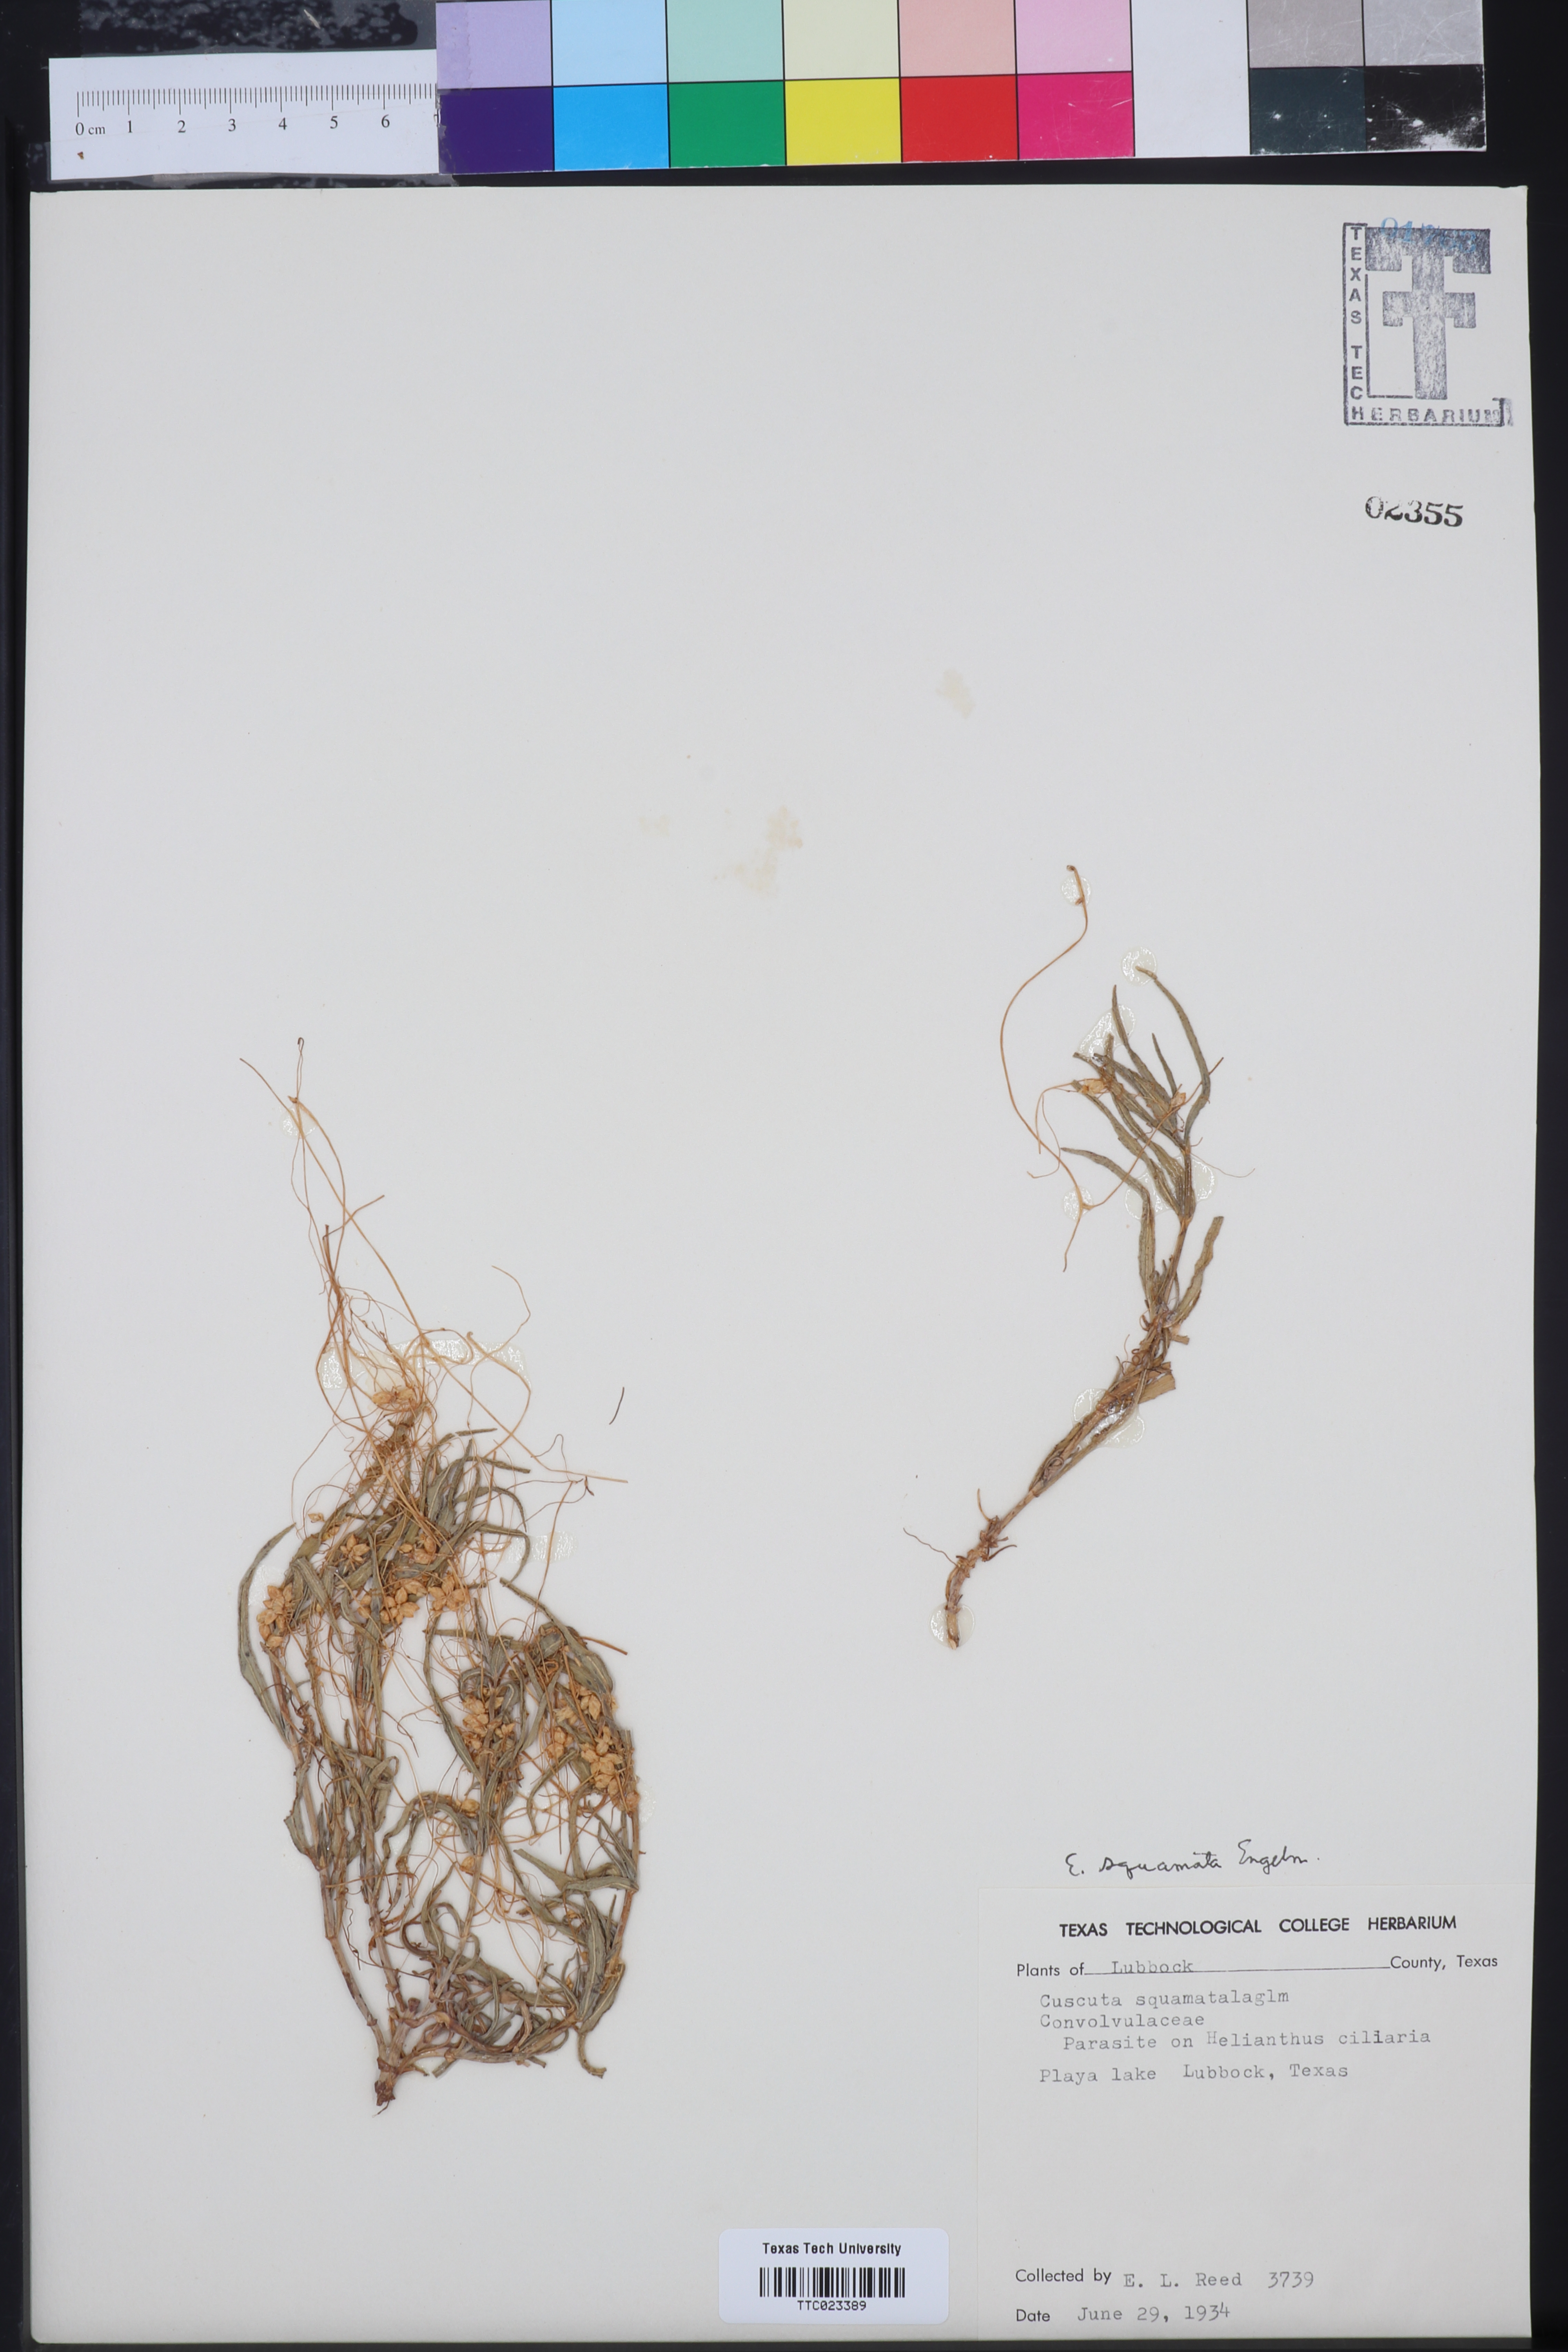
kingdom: Plantae
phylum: Tracheophyta
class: Magnoliopsida
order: Solanales
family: Convolvulaceae
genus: Cuscuta
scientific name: Cuscuta dentatasquamata
